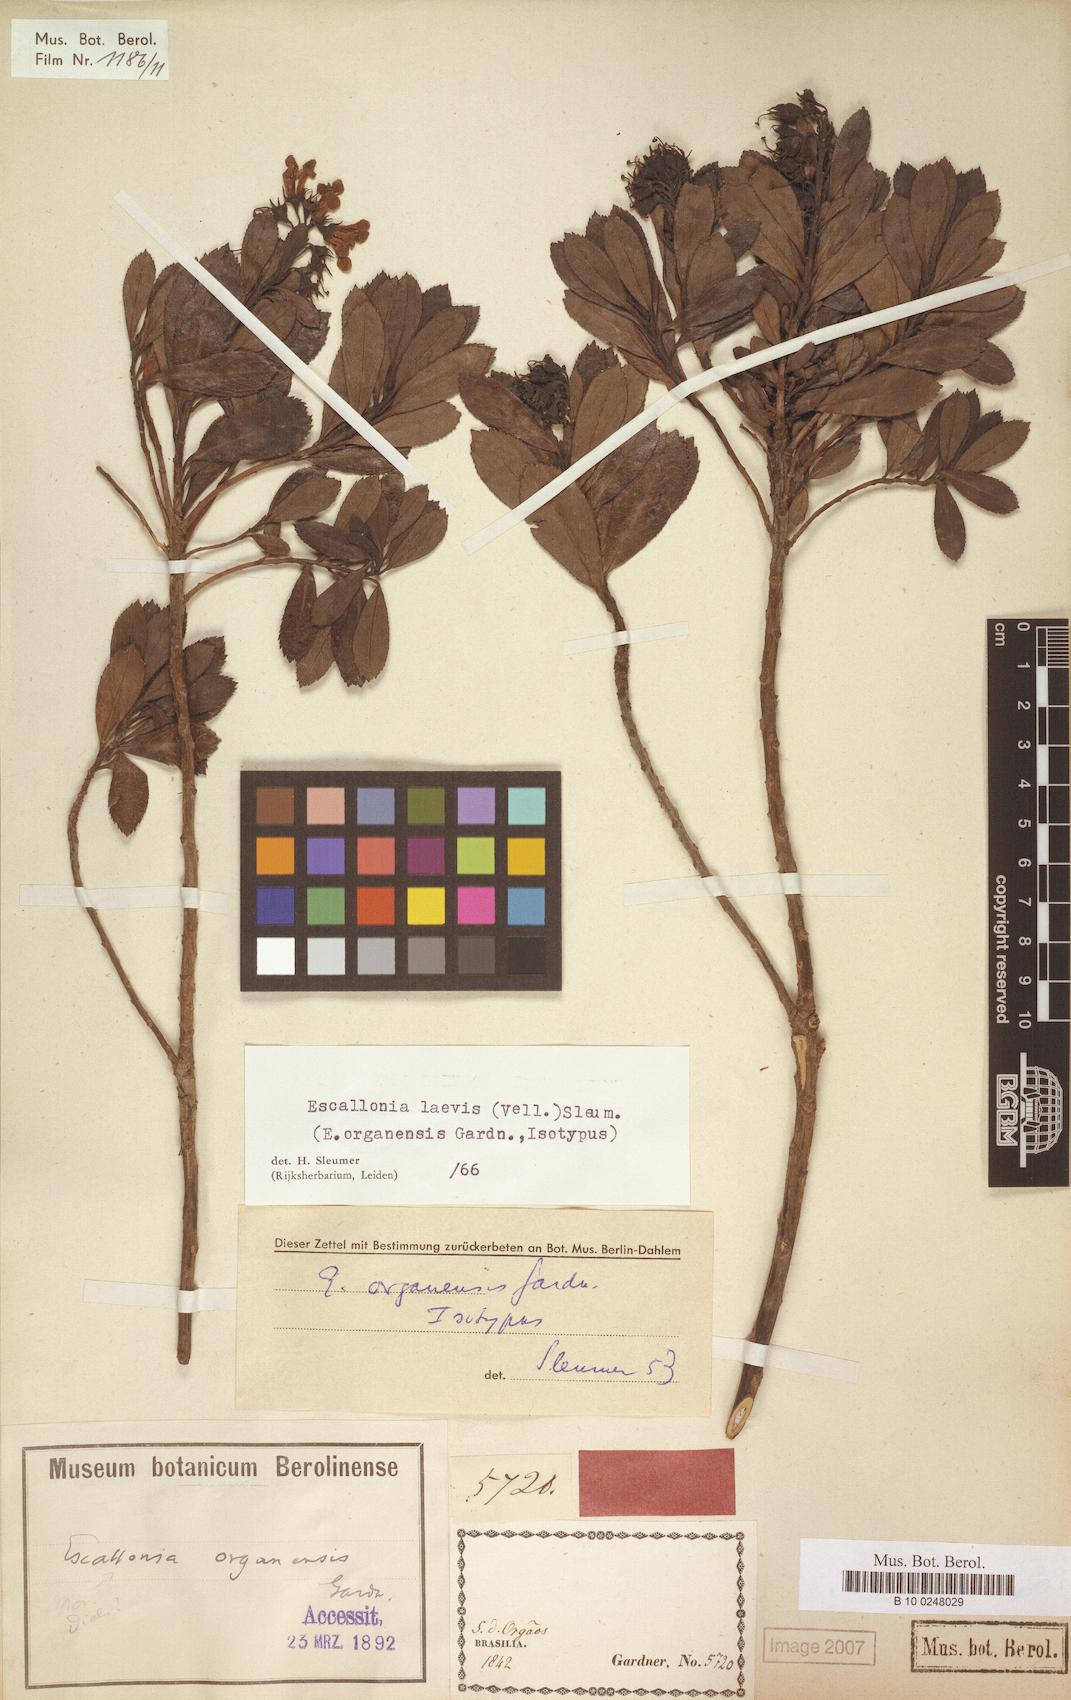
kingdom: Plantae
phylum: Tracheophyta
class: Magnoliopsida
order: Escalloniales
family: Escalloniaceae
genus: Escallonia
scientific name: Escallonia laevis
